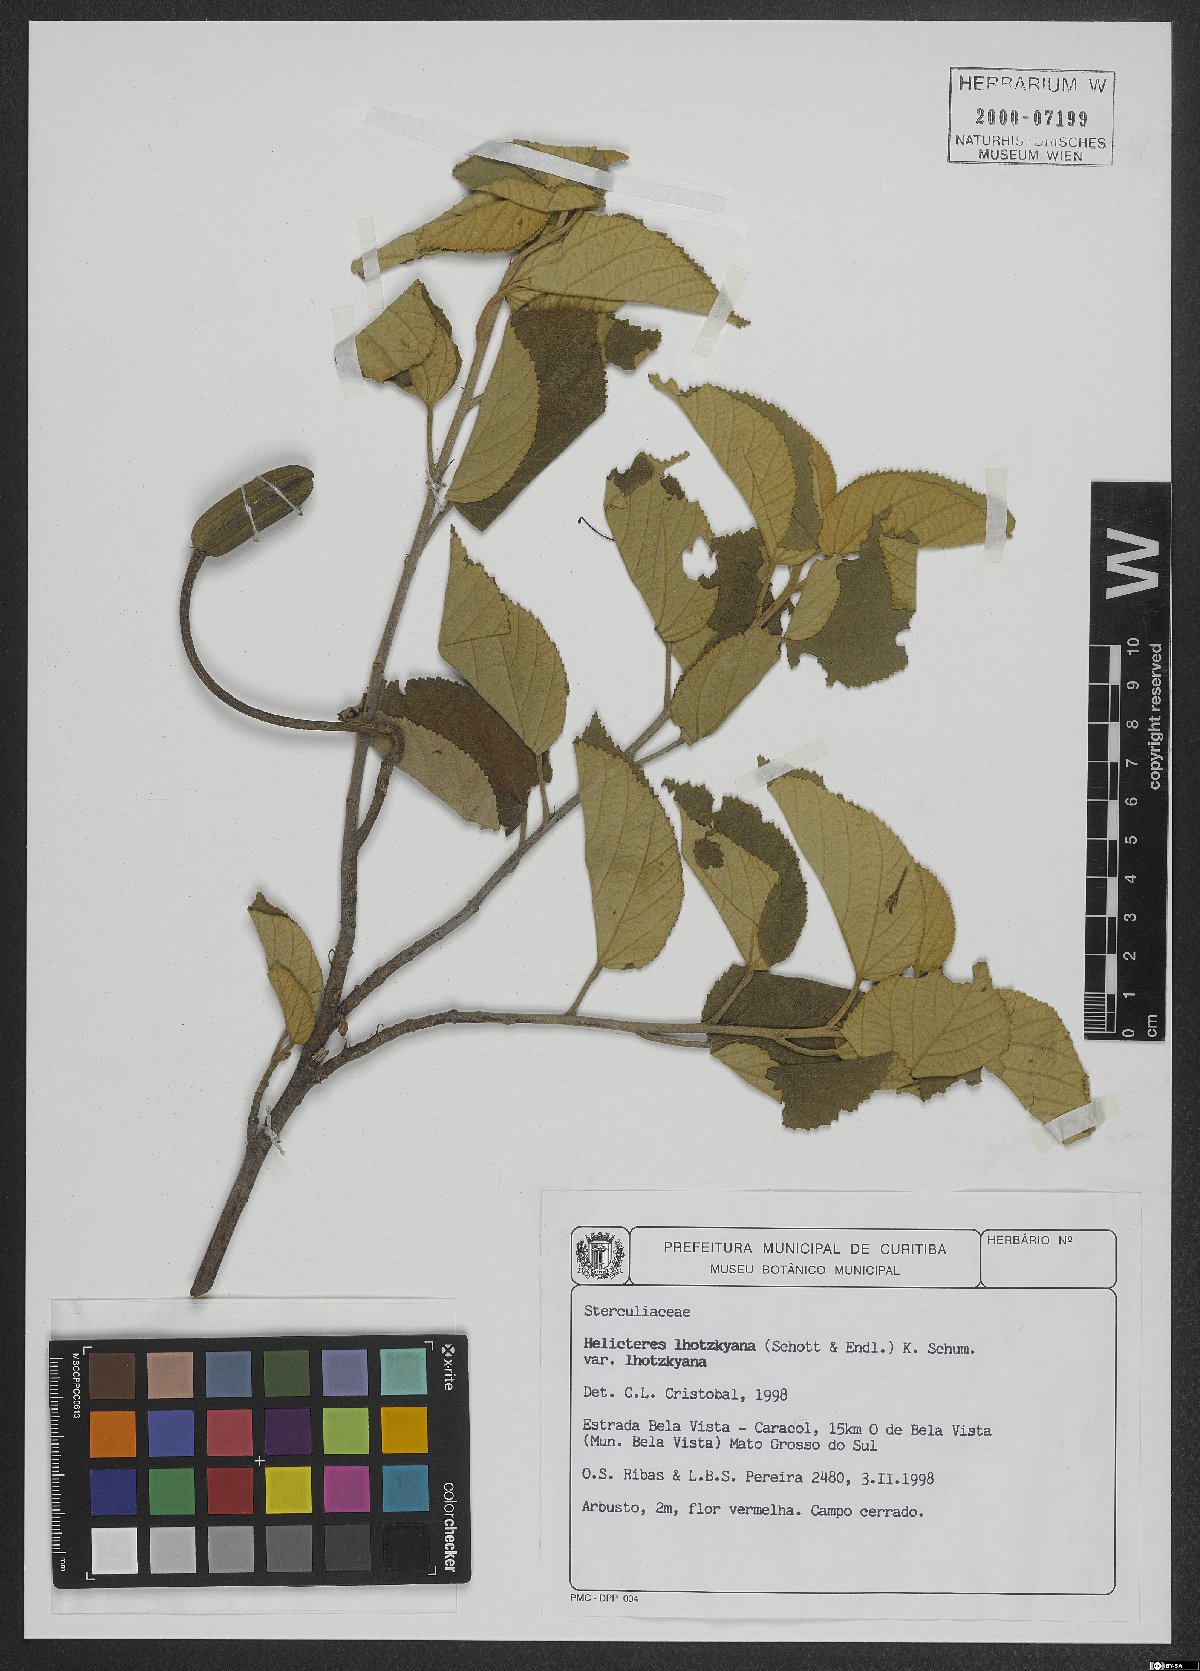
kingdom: Plantae
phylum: Tracheophyta
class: Magnoliopsida
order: Malvales
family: Malvaceae
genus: Helicteres
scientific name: Helicteres lhotzkyana
